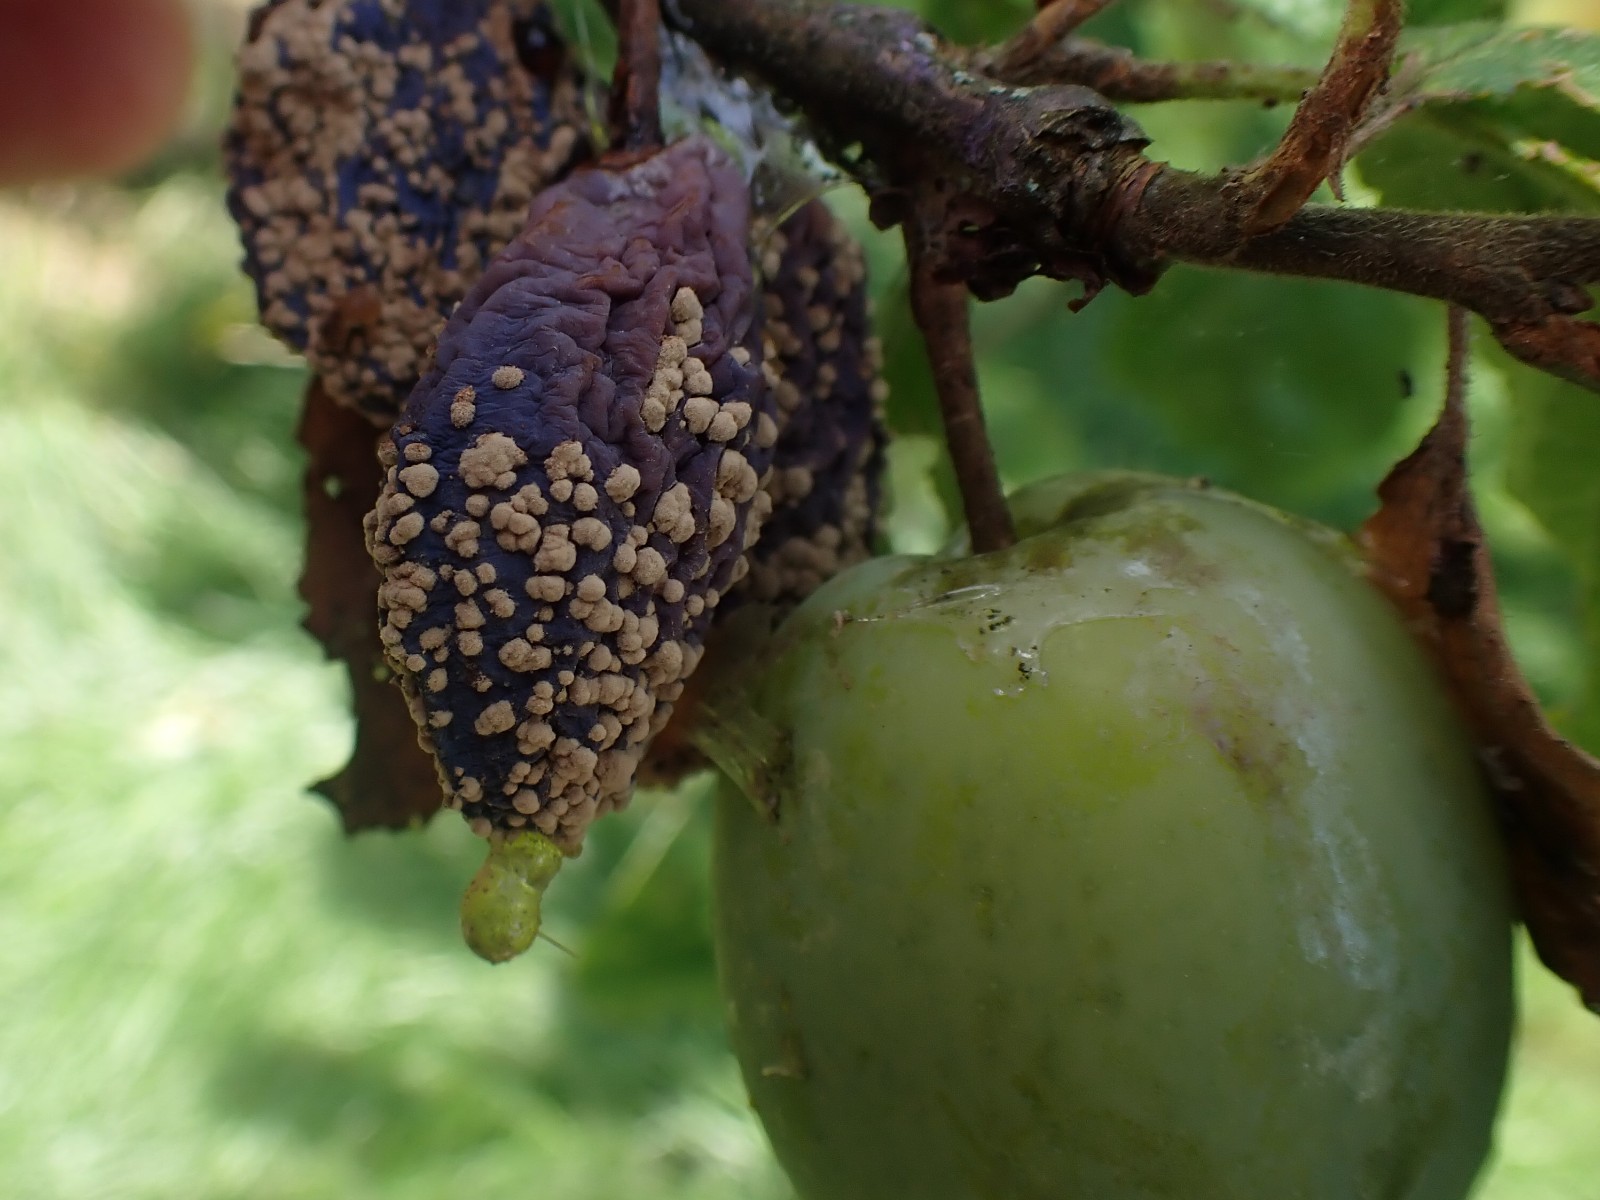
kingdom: Fungi
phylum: Ascomycota
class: Leotiomycetes
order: Helotiales
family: Sclerotiniaceae
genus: Monilinia
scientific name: Monilinia laxa
